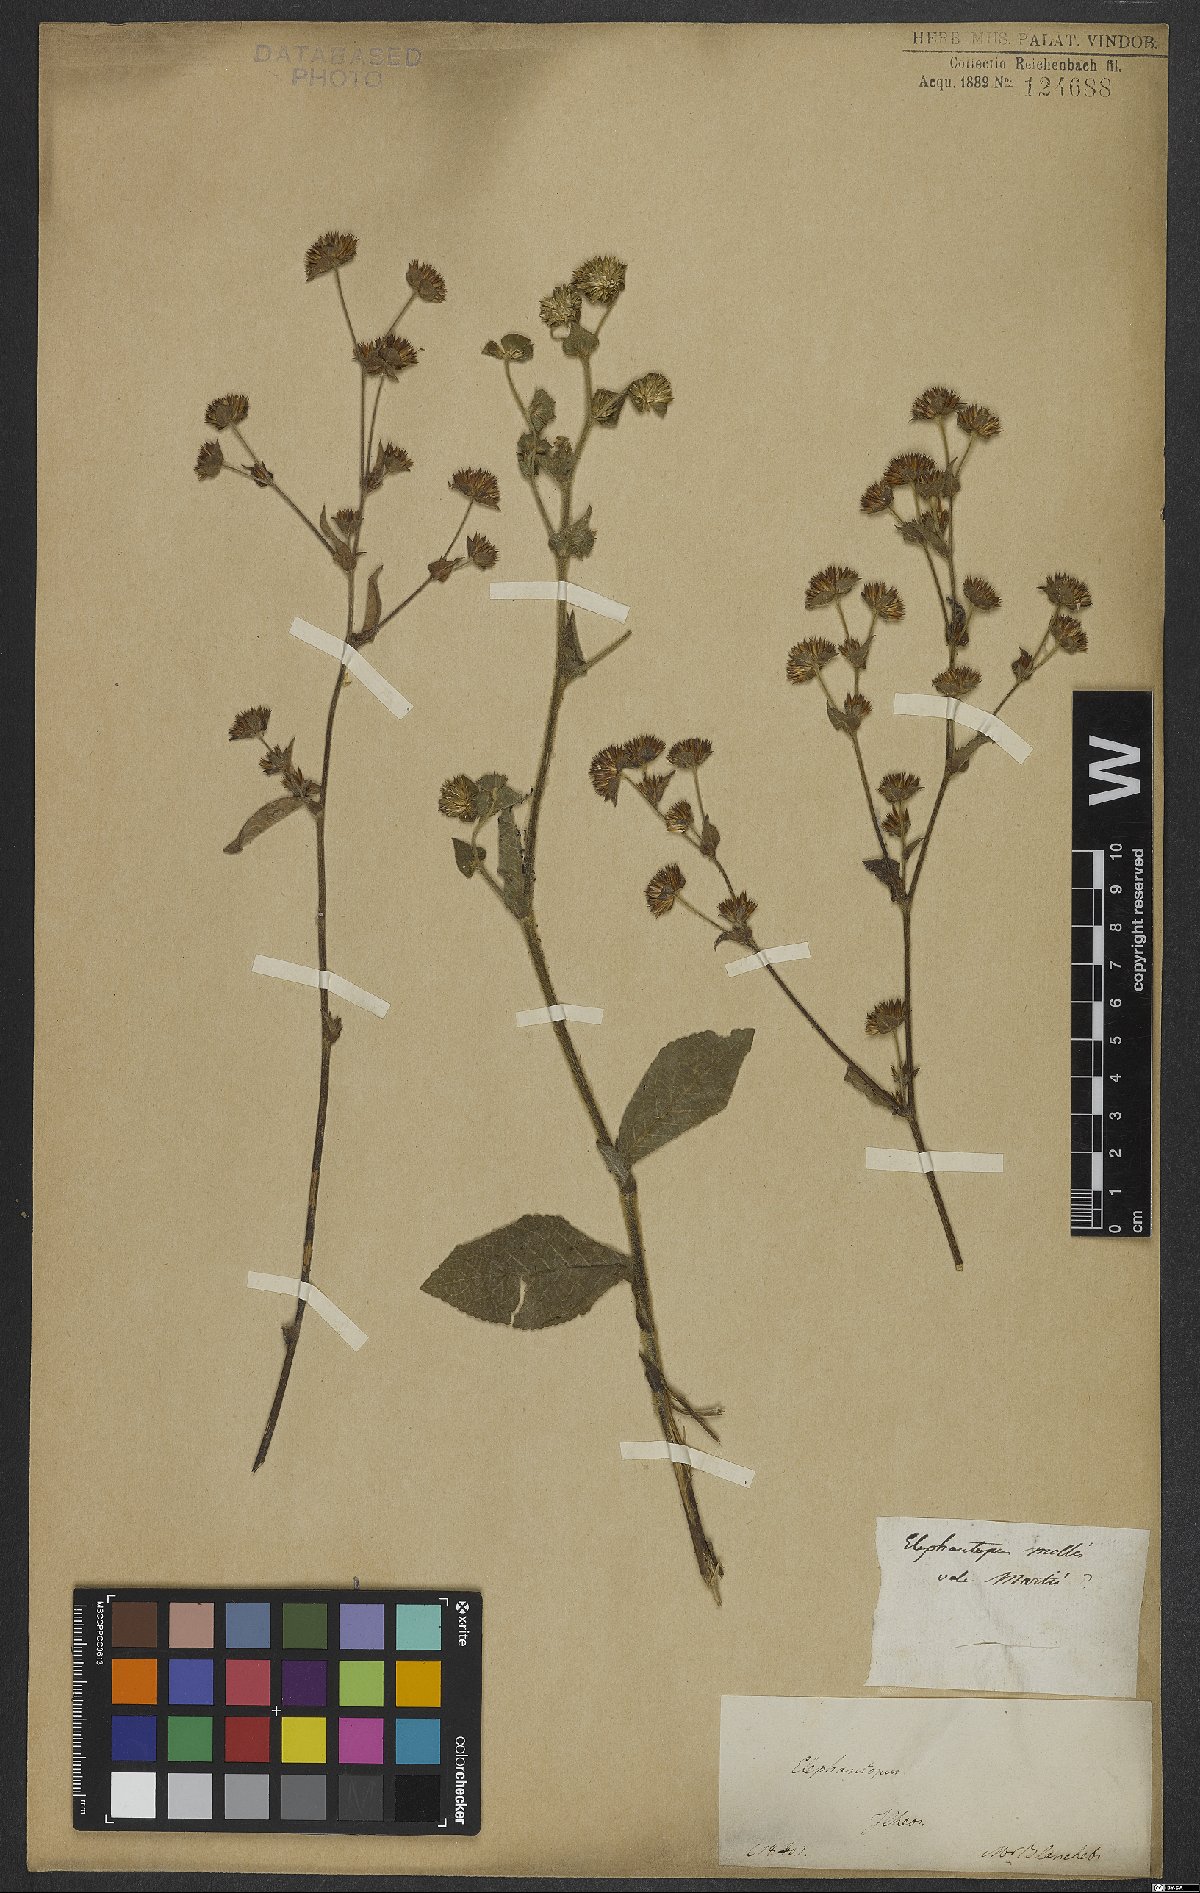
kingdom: Plantae
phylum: Tracheophyta
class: Magnoliopsida
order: Asterales
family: Asteraceae
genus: Elephantopus
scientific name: Elephantopus mollis
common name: Soft elephantsfoot
